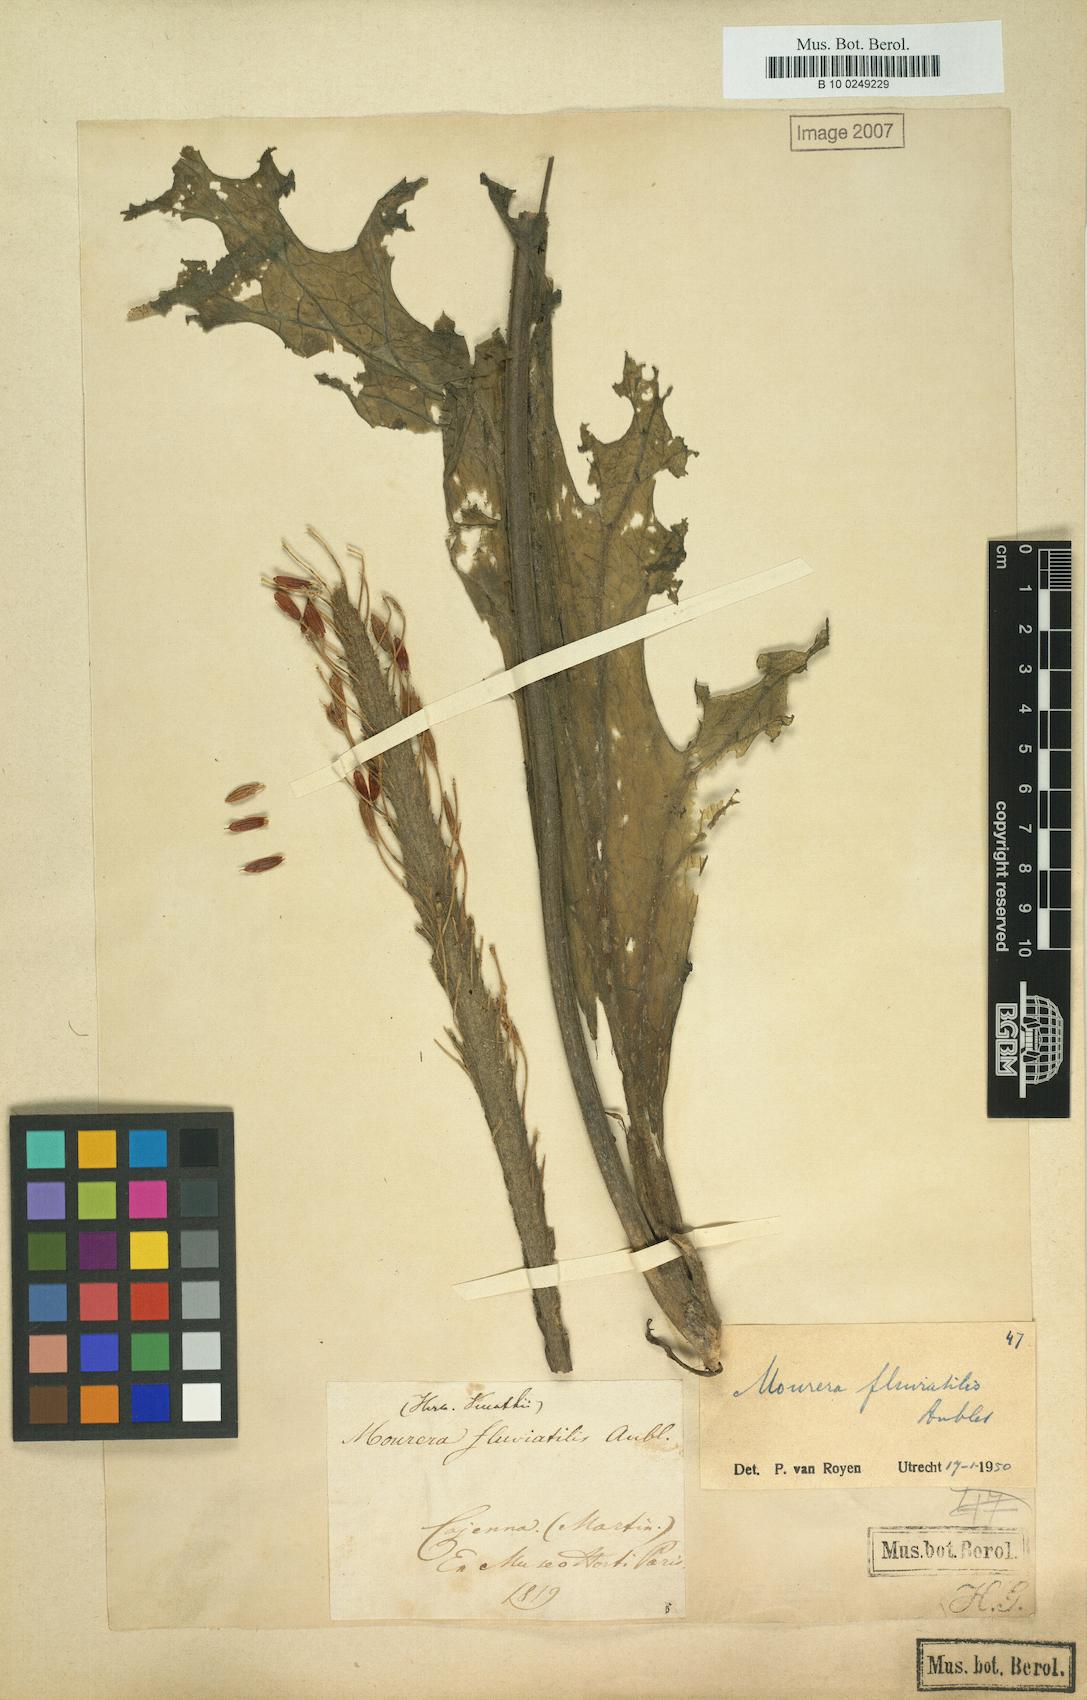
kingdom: Plantae
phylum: Tracheophyta
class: Magnoliopsida
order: Malpighiales
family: Podostemaceae
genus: Mourera
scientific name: Mourera fluviatilis
